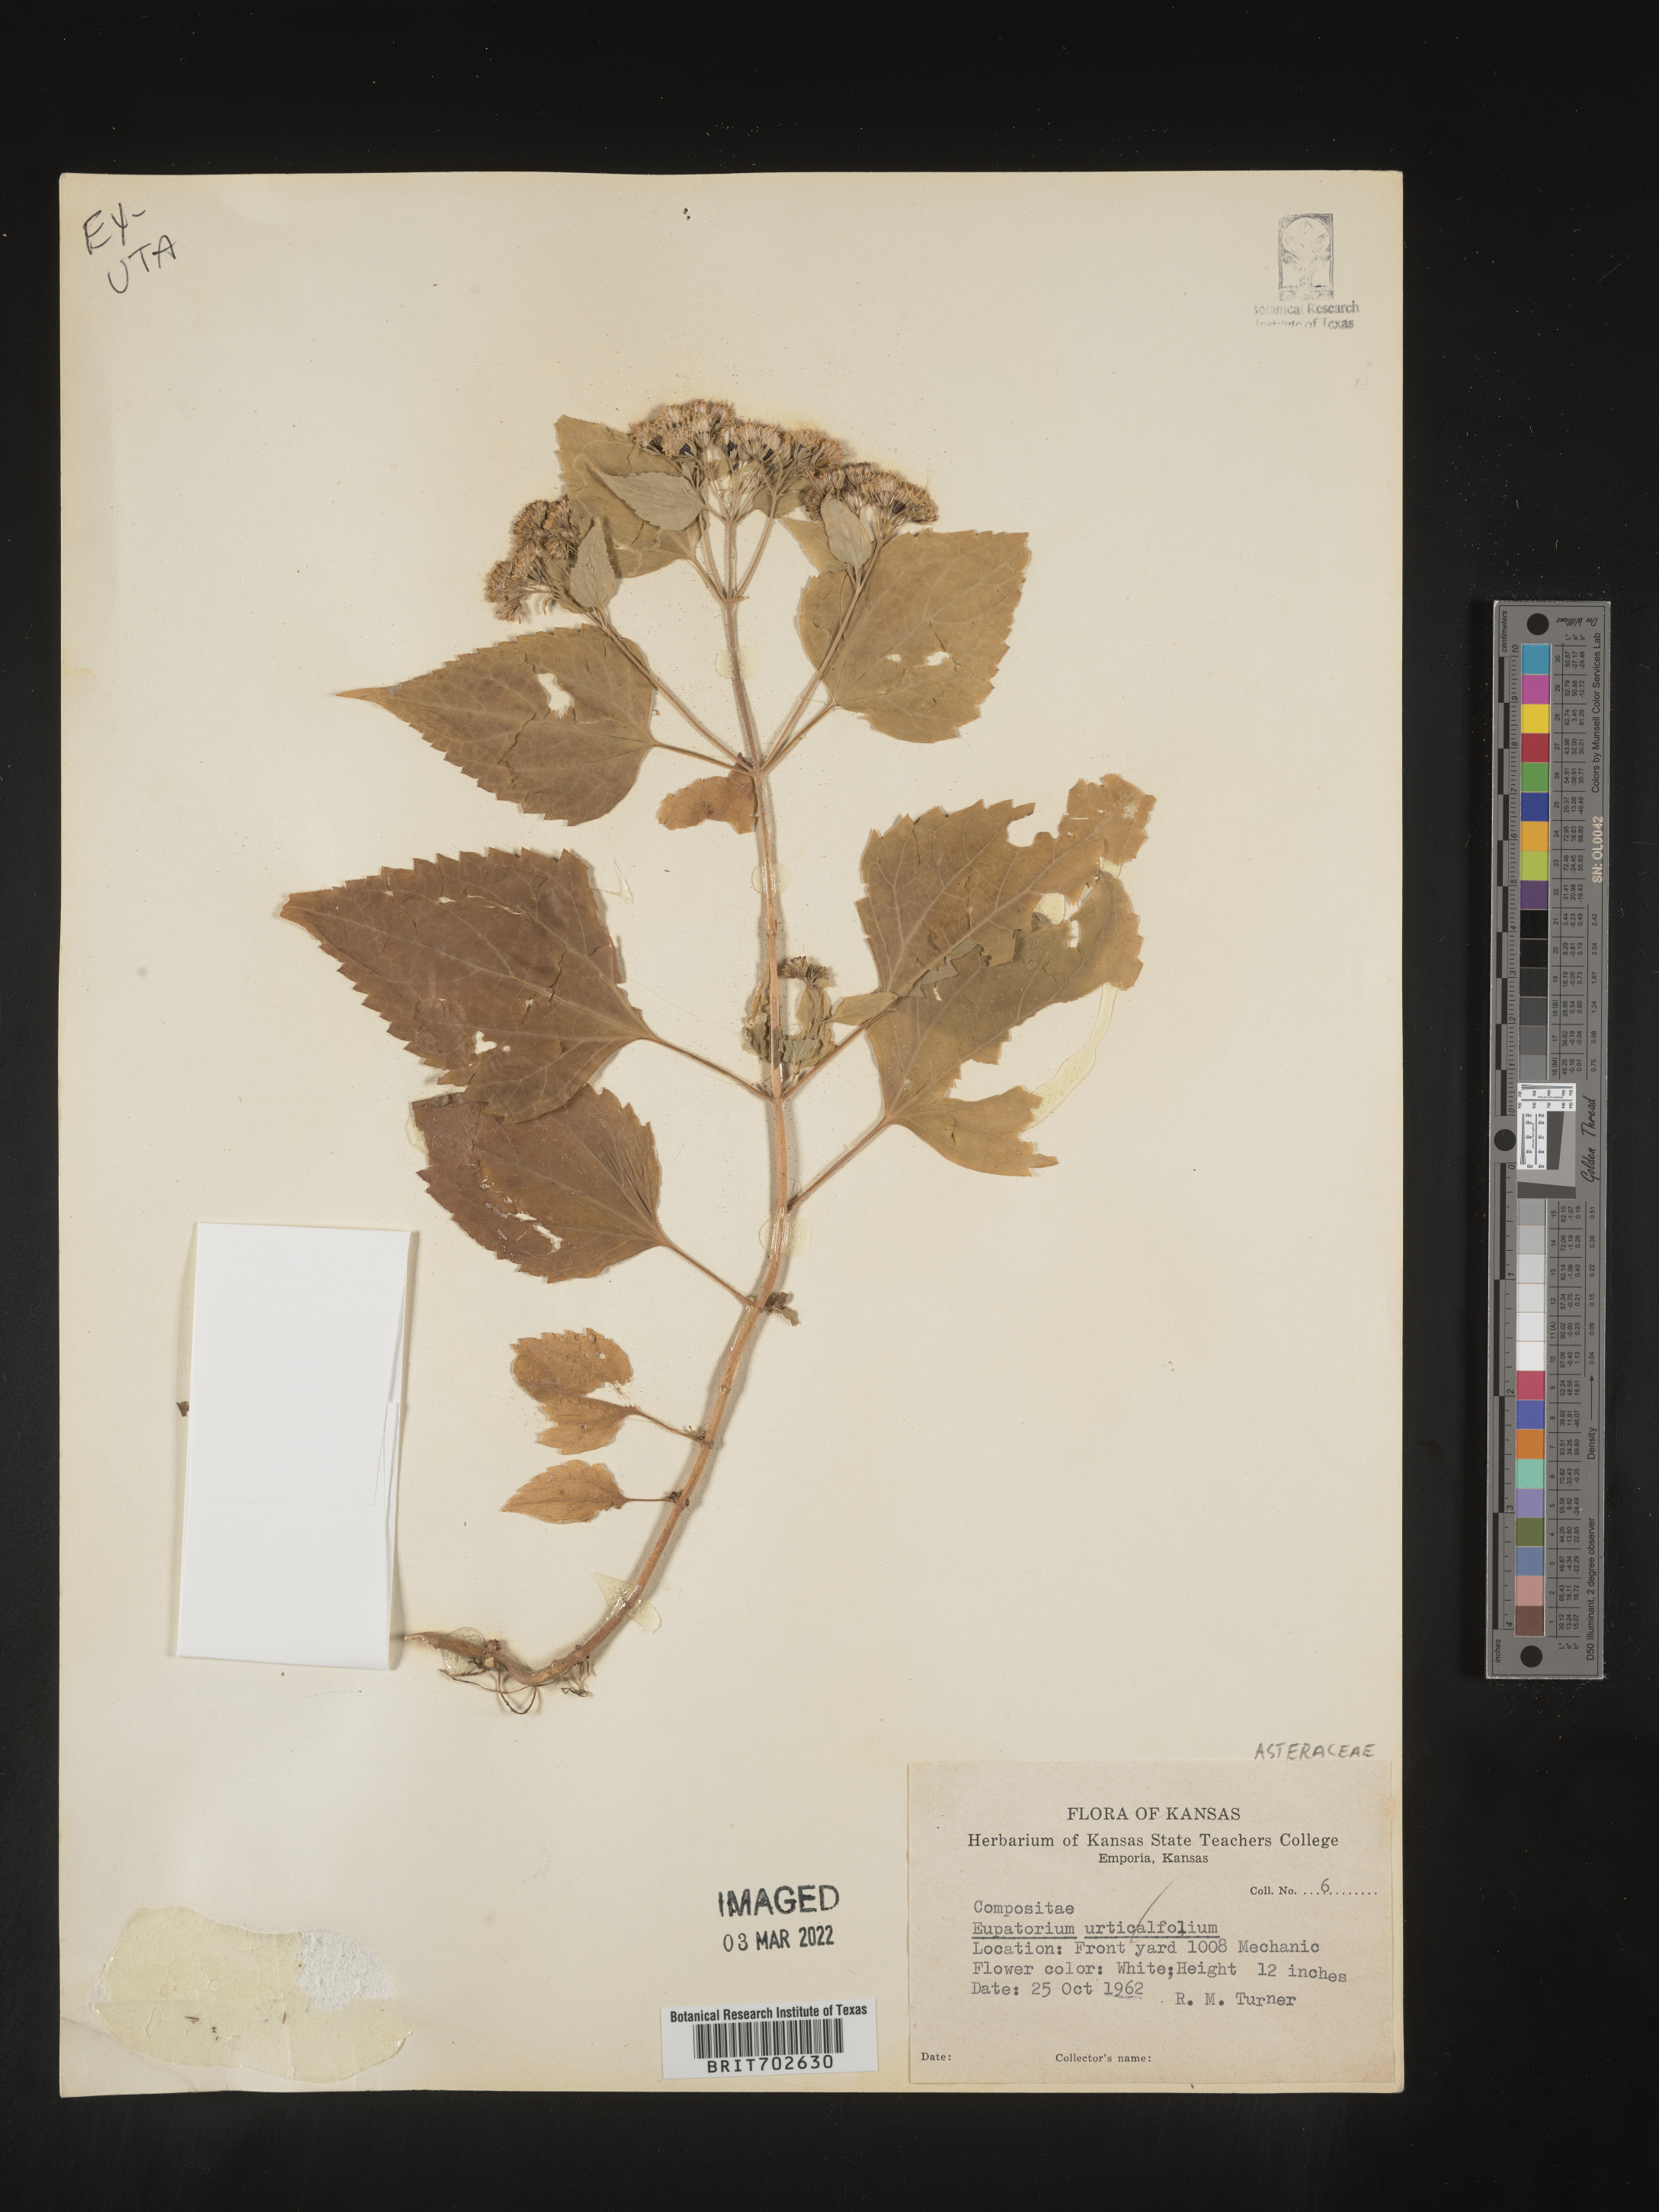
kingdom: Plantae
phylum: Tracheophyta
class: Magnoliopsida
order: Asterales
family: Asteraceae
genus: Ageratina
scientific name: Ageratina altissima
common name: White snakeroot
